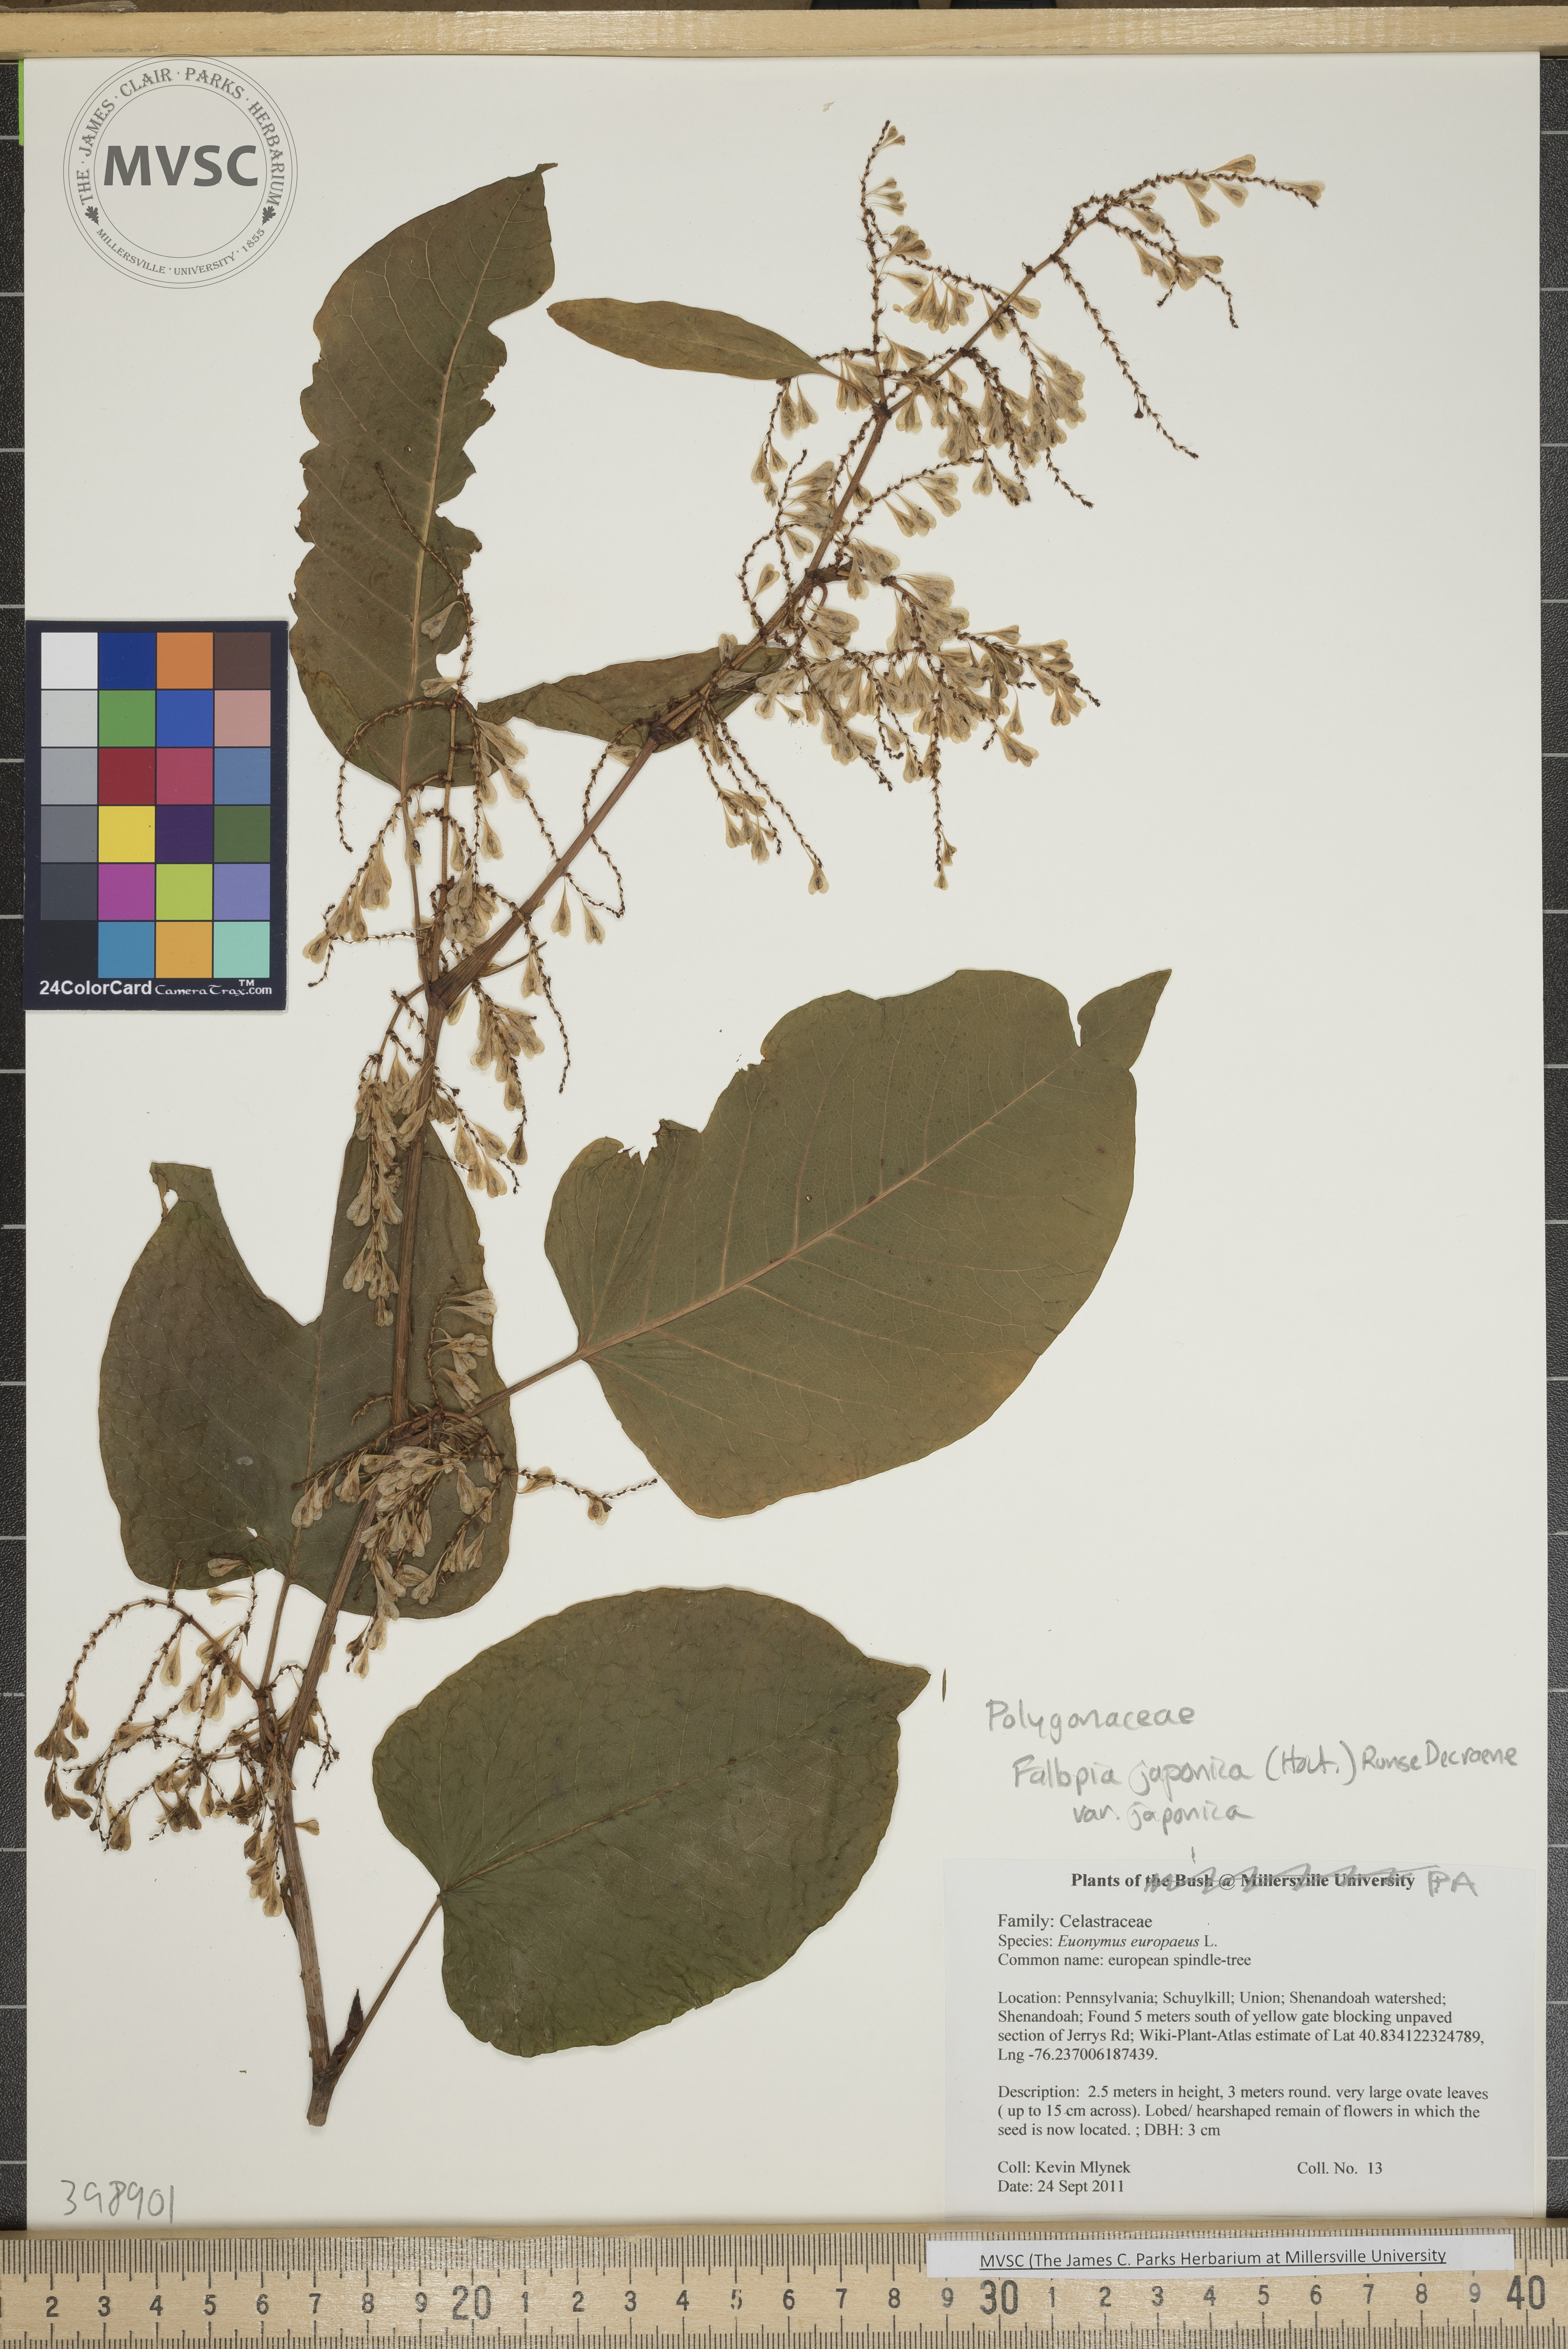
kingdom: Plantae
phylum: Tracheophyta
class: Magnoliopsida
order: Caryophyllales
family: Polygonaceae
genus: Reynoutria
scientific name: Reynoutria japonica
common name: Japanese knotweed
